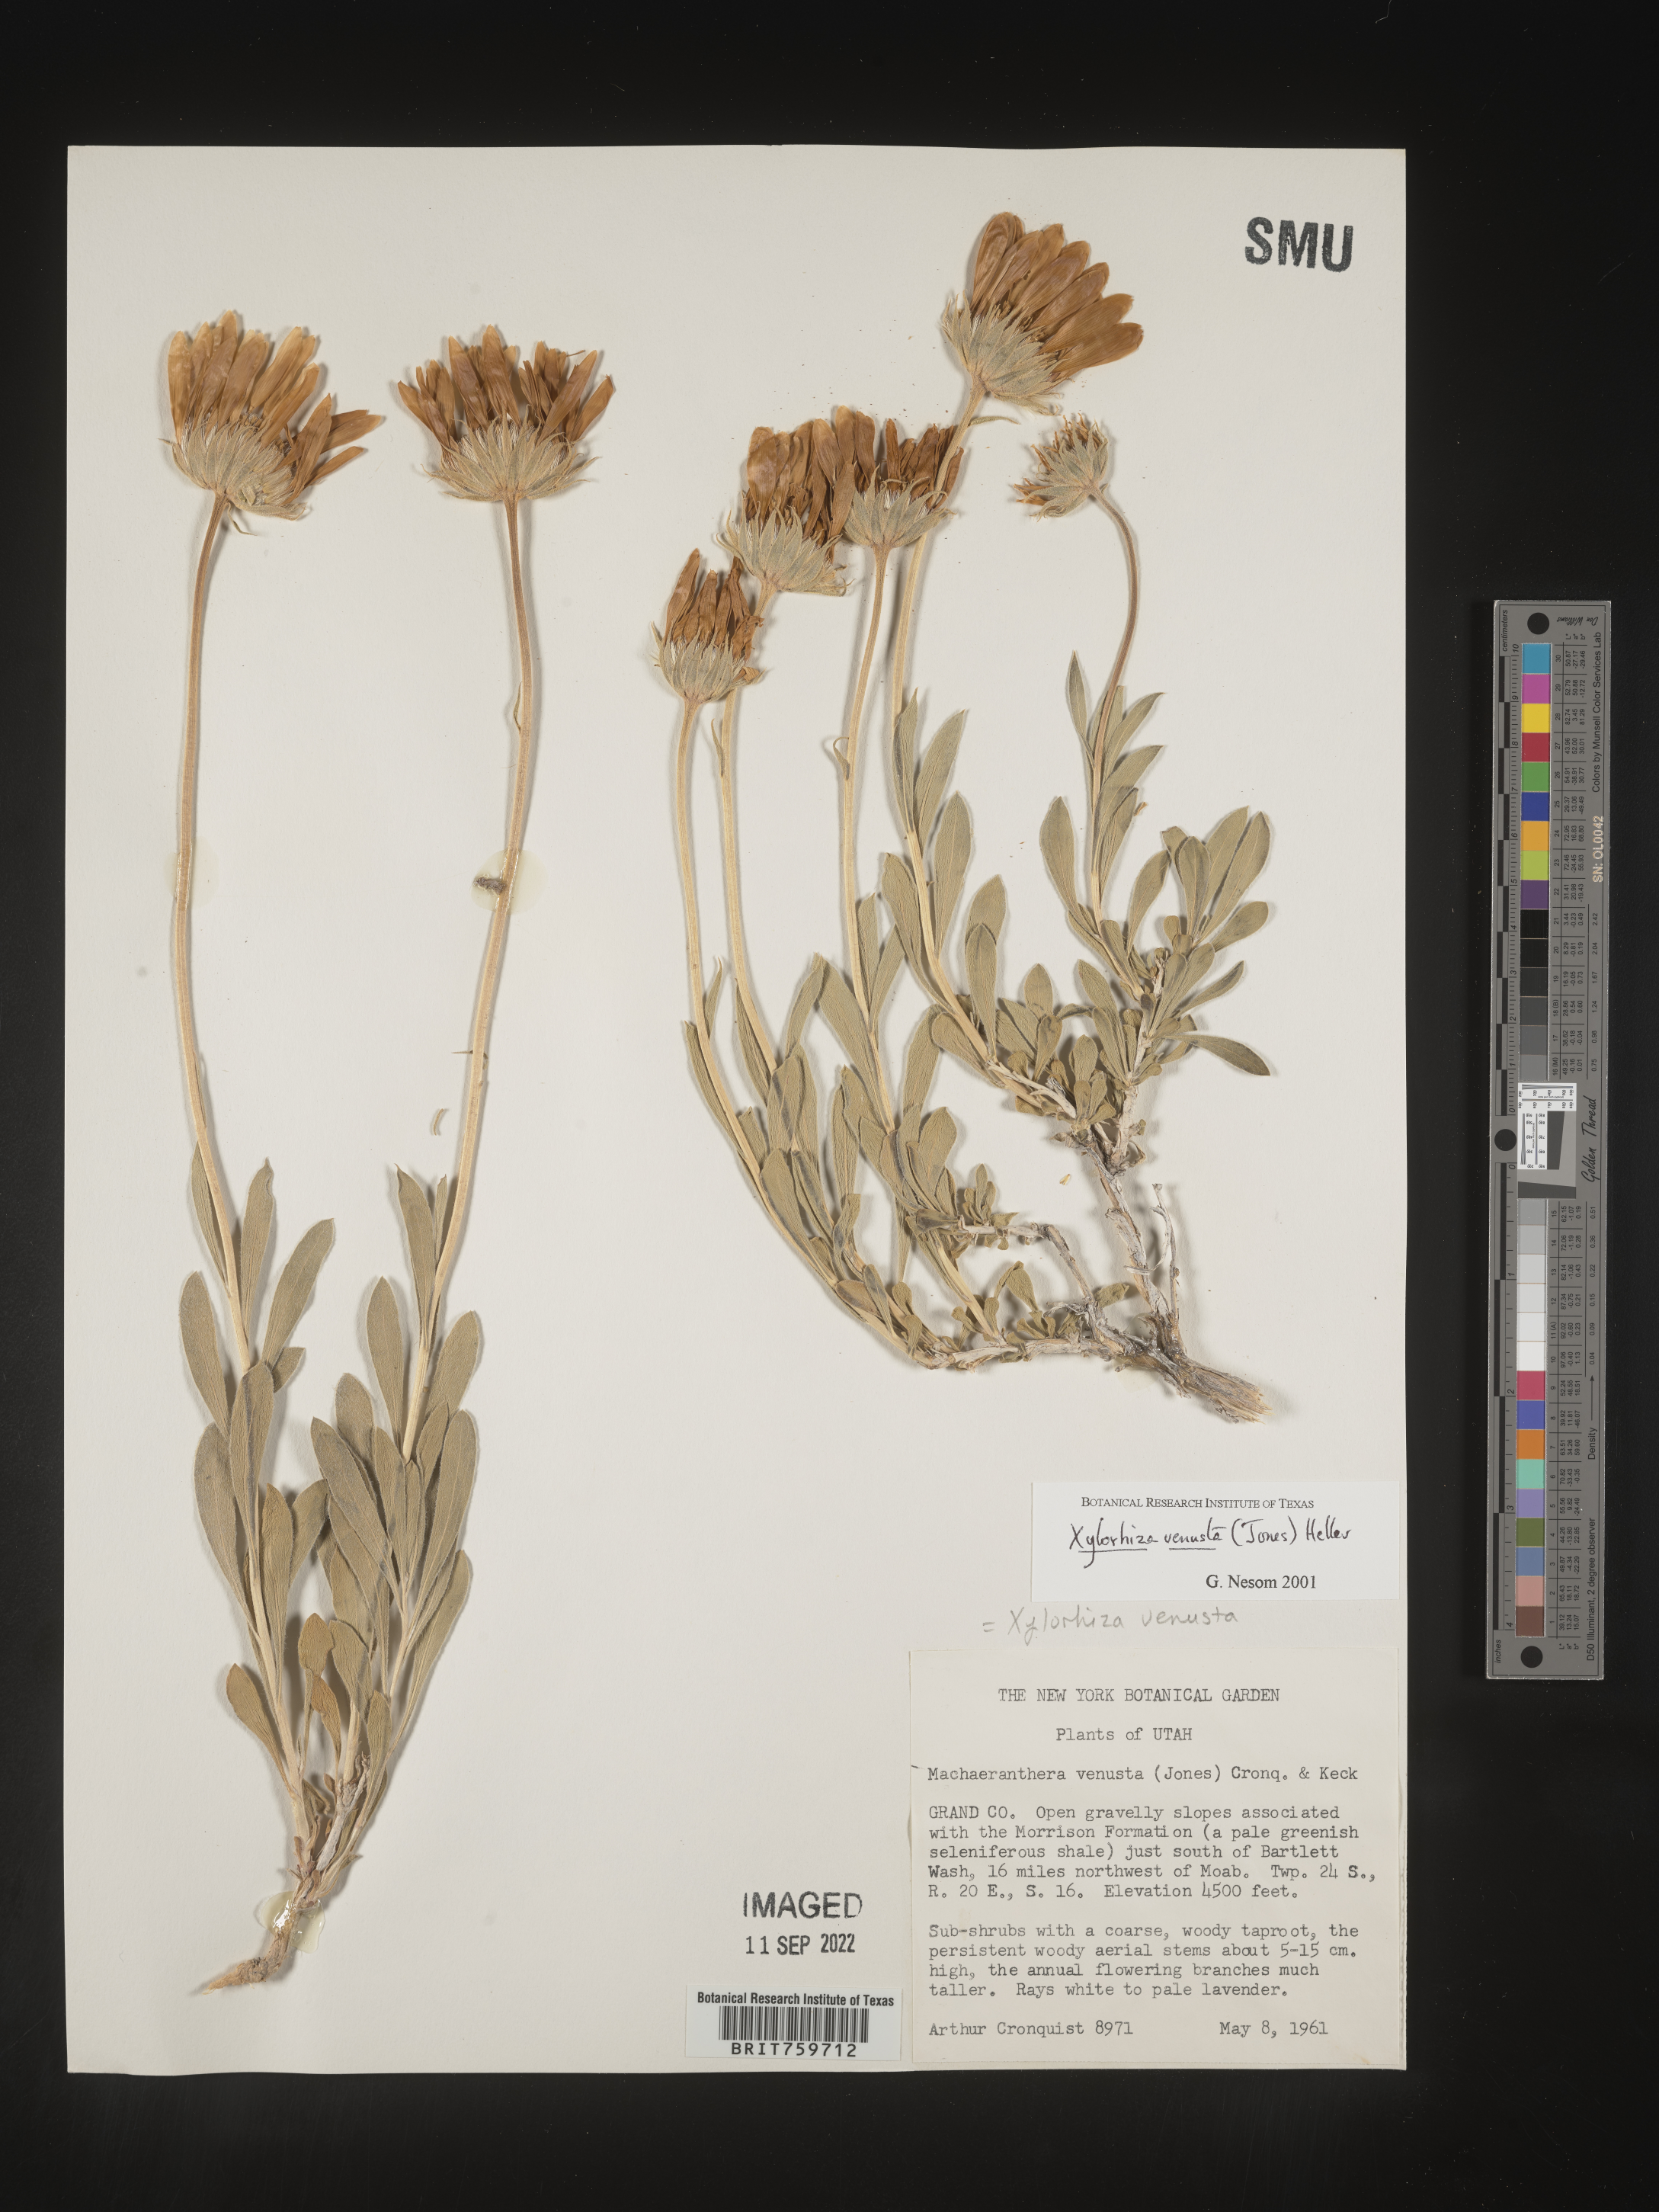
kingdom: Plantae
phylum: Tracheophyta
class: Magnoliopsida
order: Asterales
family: Asteraceae
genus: Xylorhiza
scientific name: Xylorhiza venusta
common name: Cisco woody-aster
